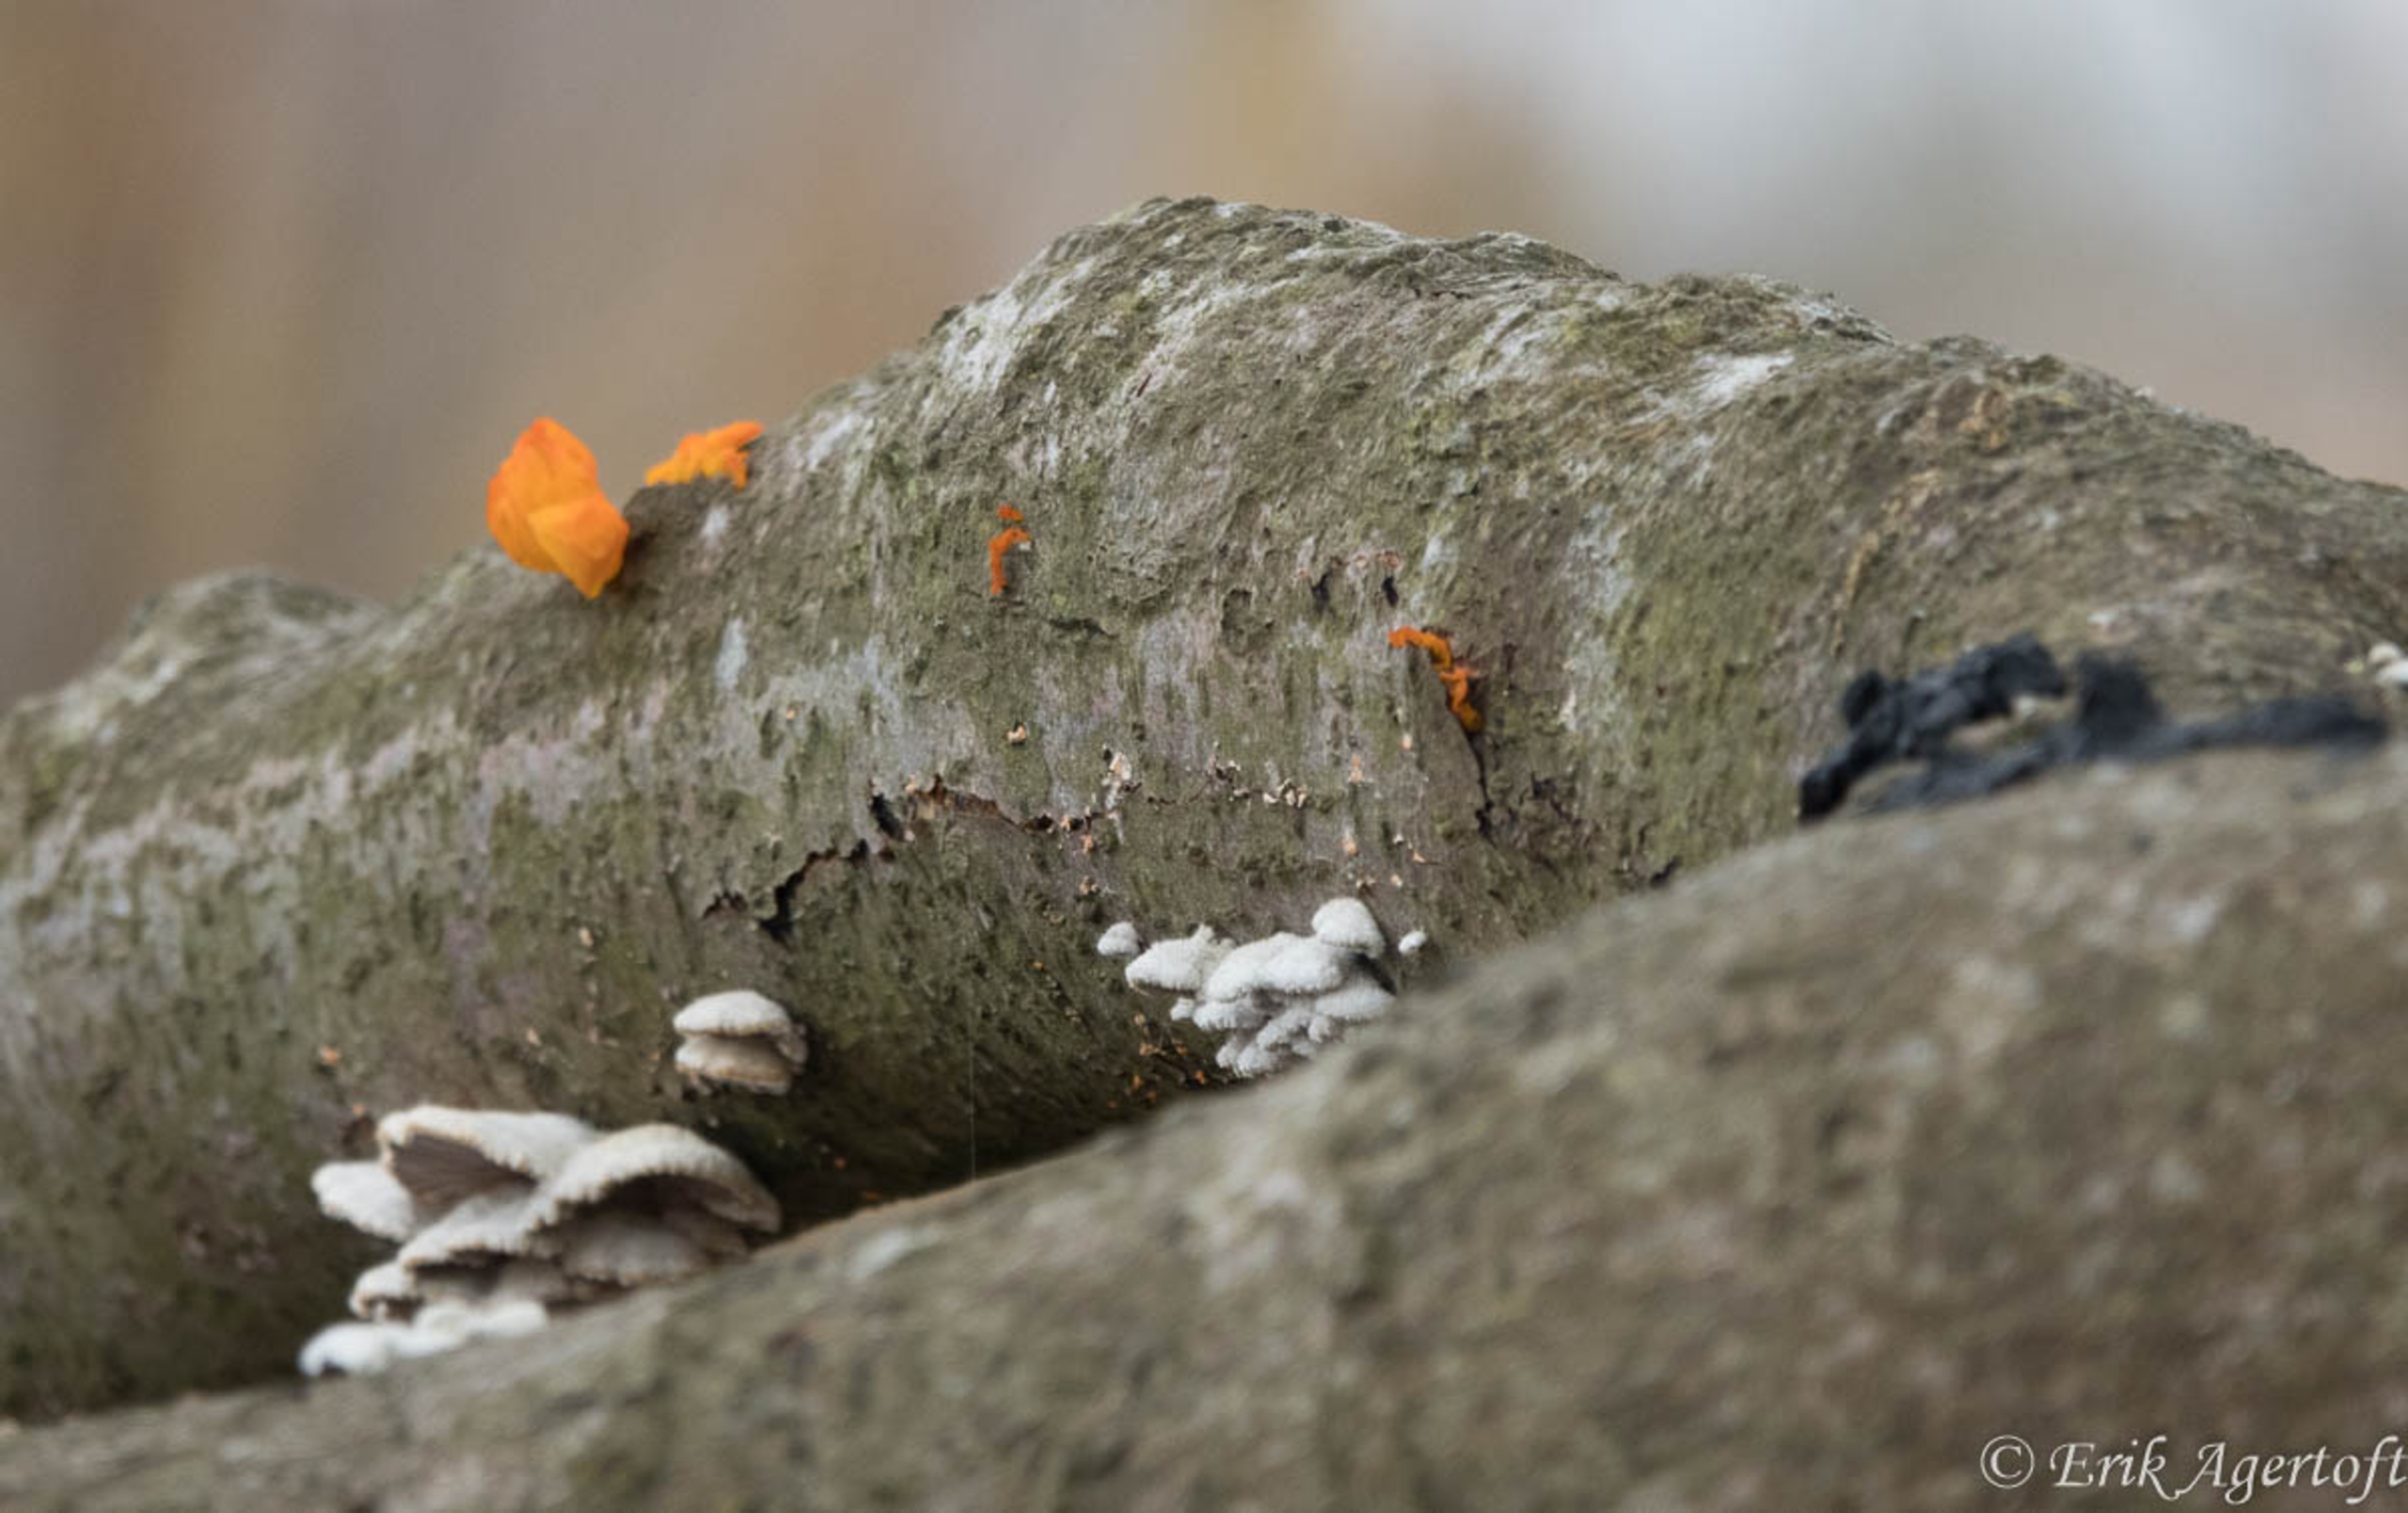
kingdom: Fungi
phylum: Basidiomycota
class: Tremellomycetes
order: Tremellales
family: Tremellaceae
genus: Tremella
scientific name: Tremella mesenterica
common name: Gul bævresvamp
